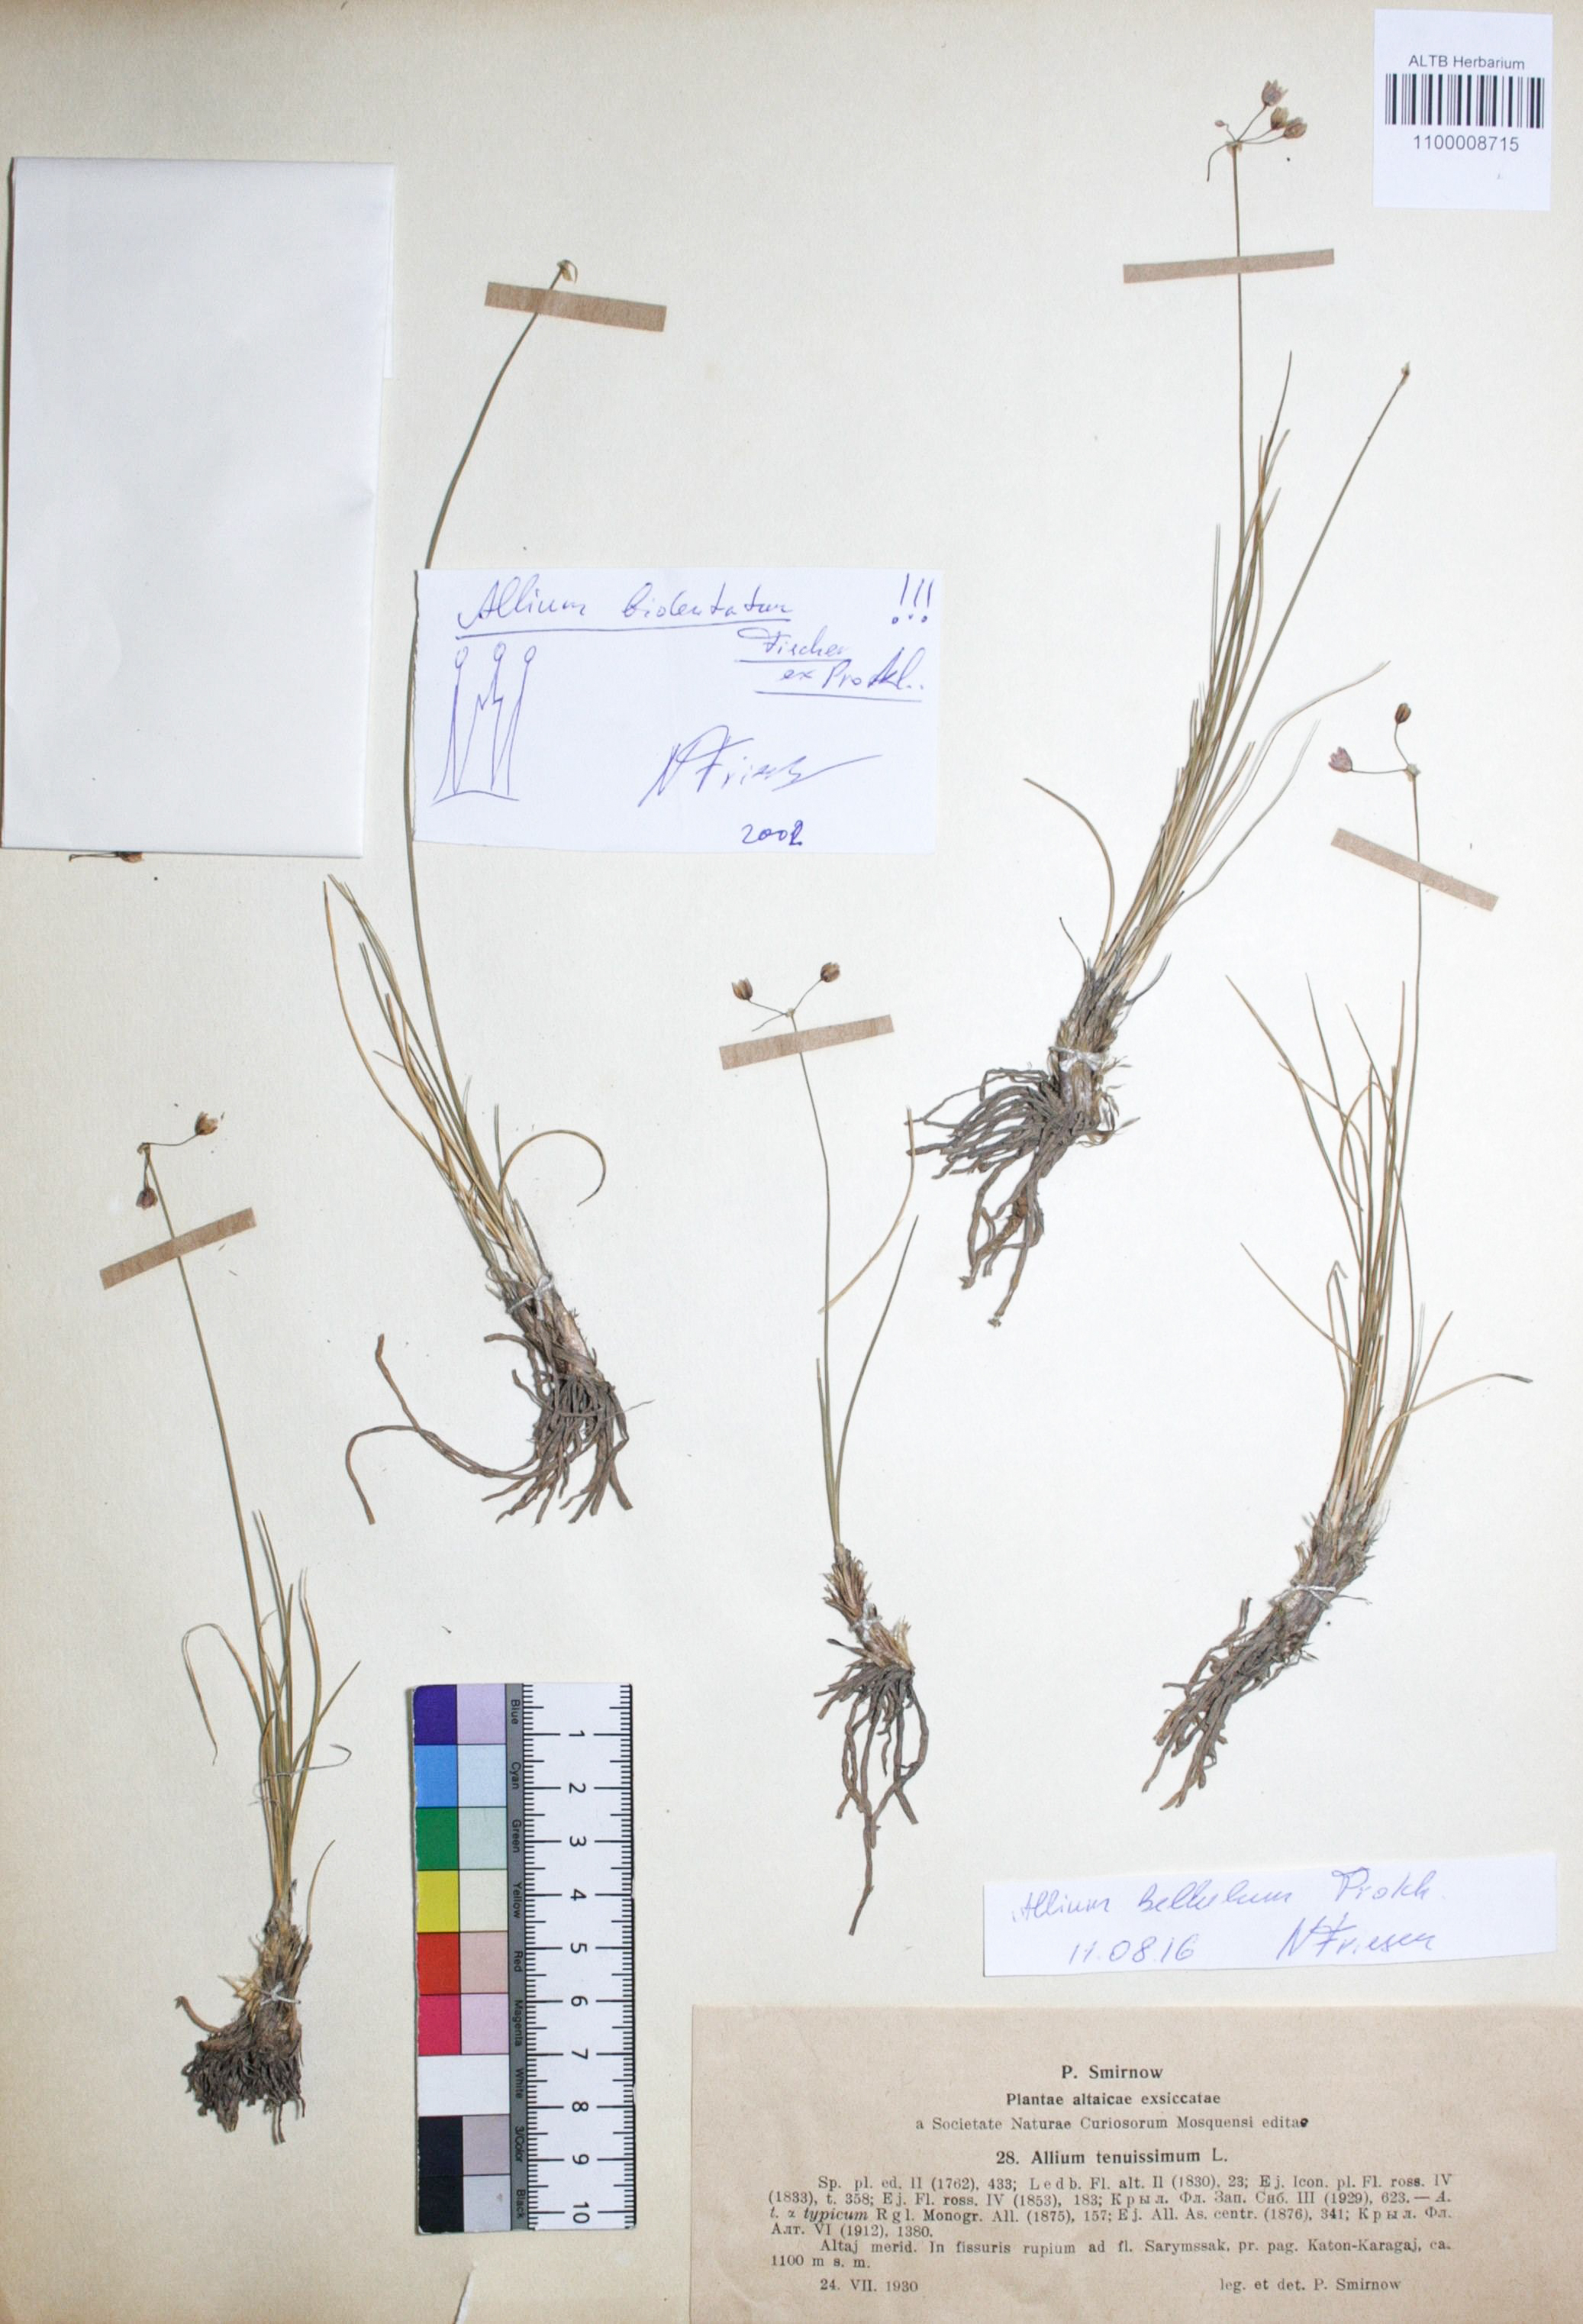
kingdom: Plantae
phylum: Tracheophyta
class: Liliopsida
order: Asparagales
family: Amaryllidaceae
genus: Allium
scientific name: Allium bellulum
